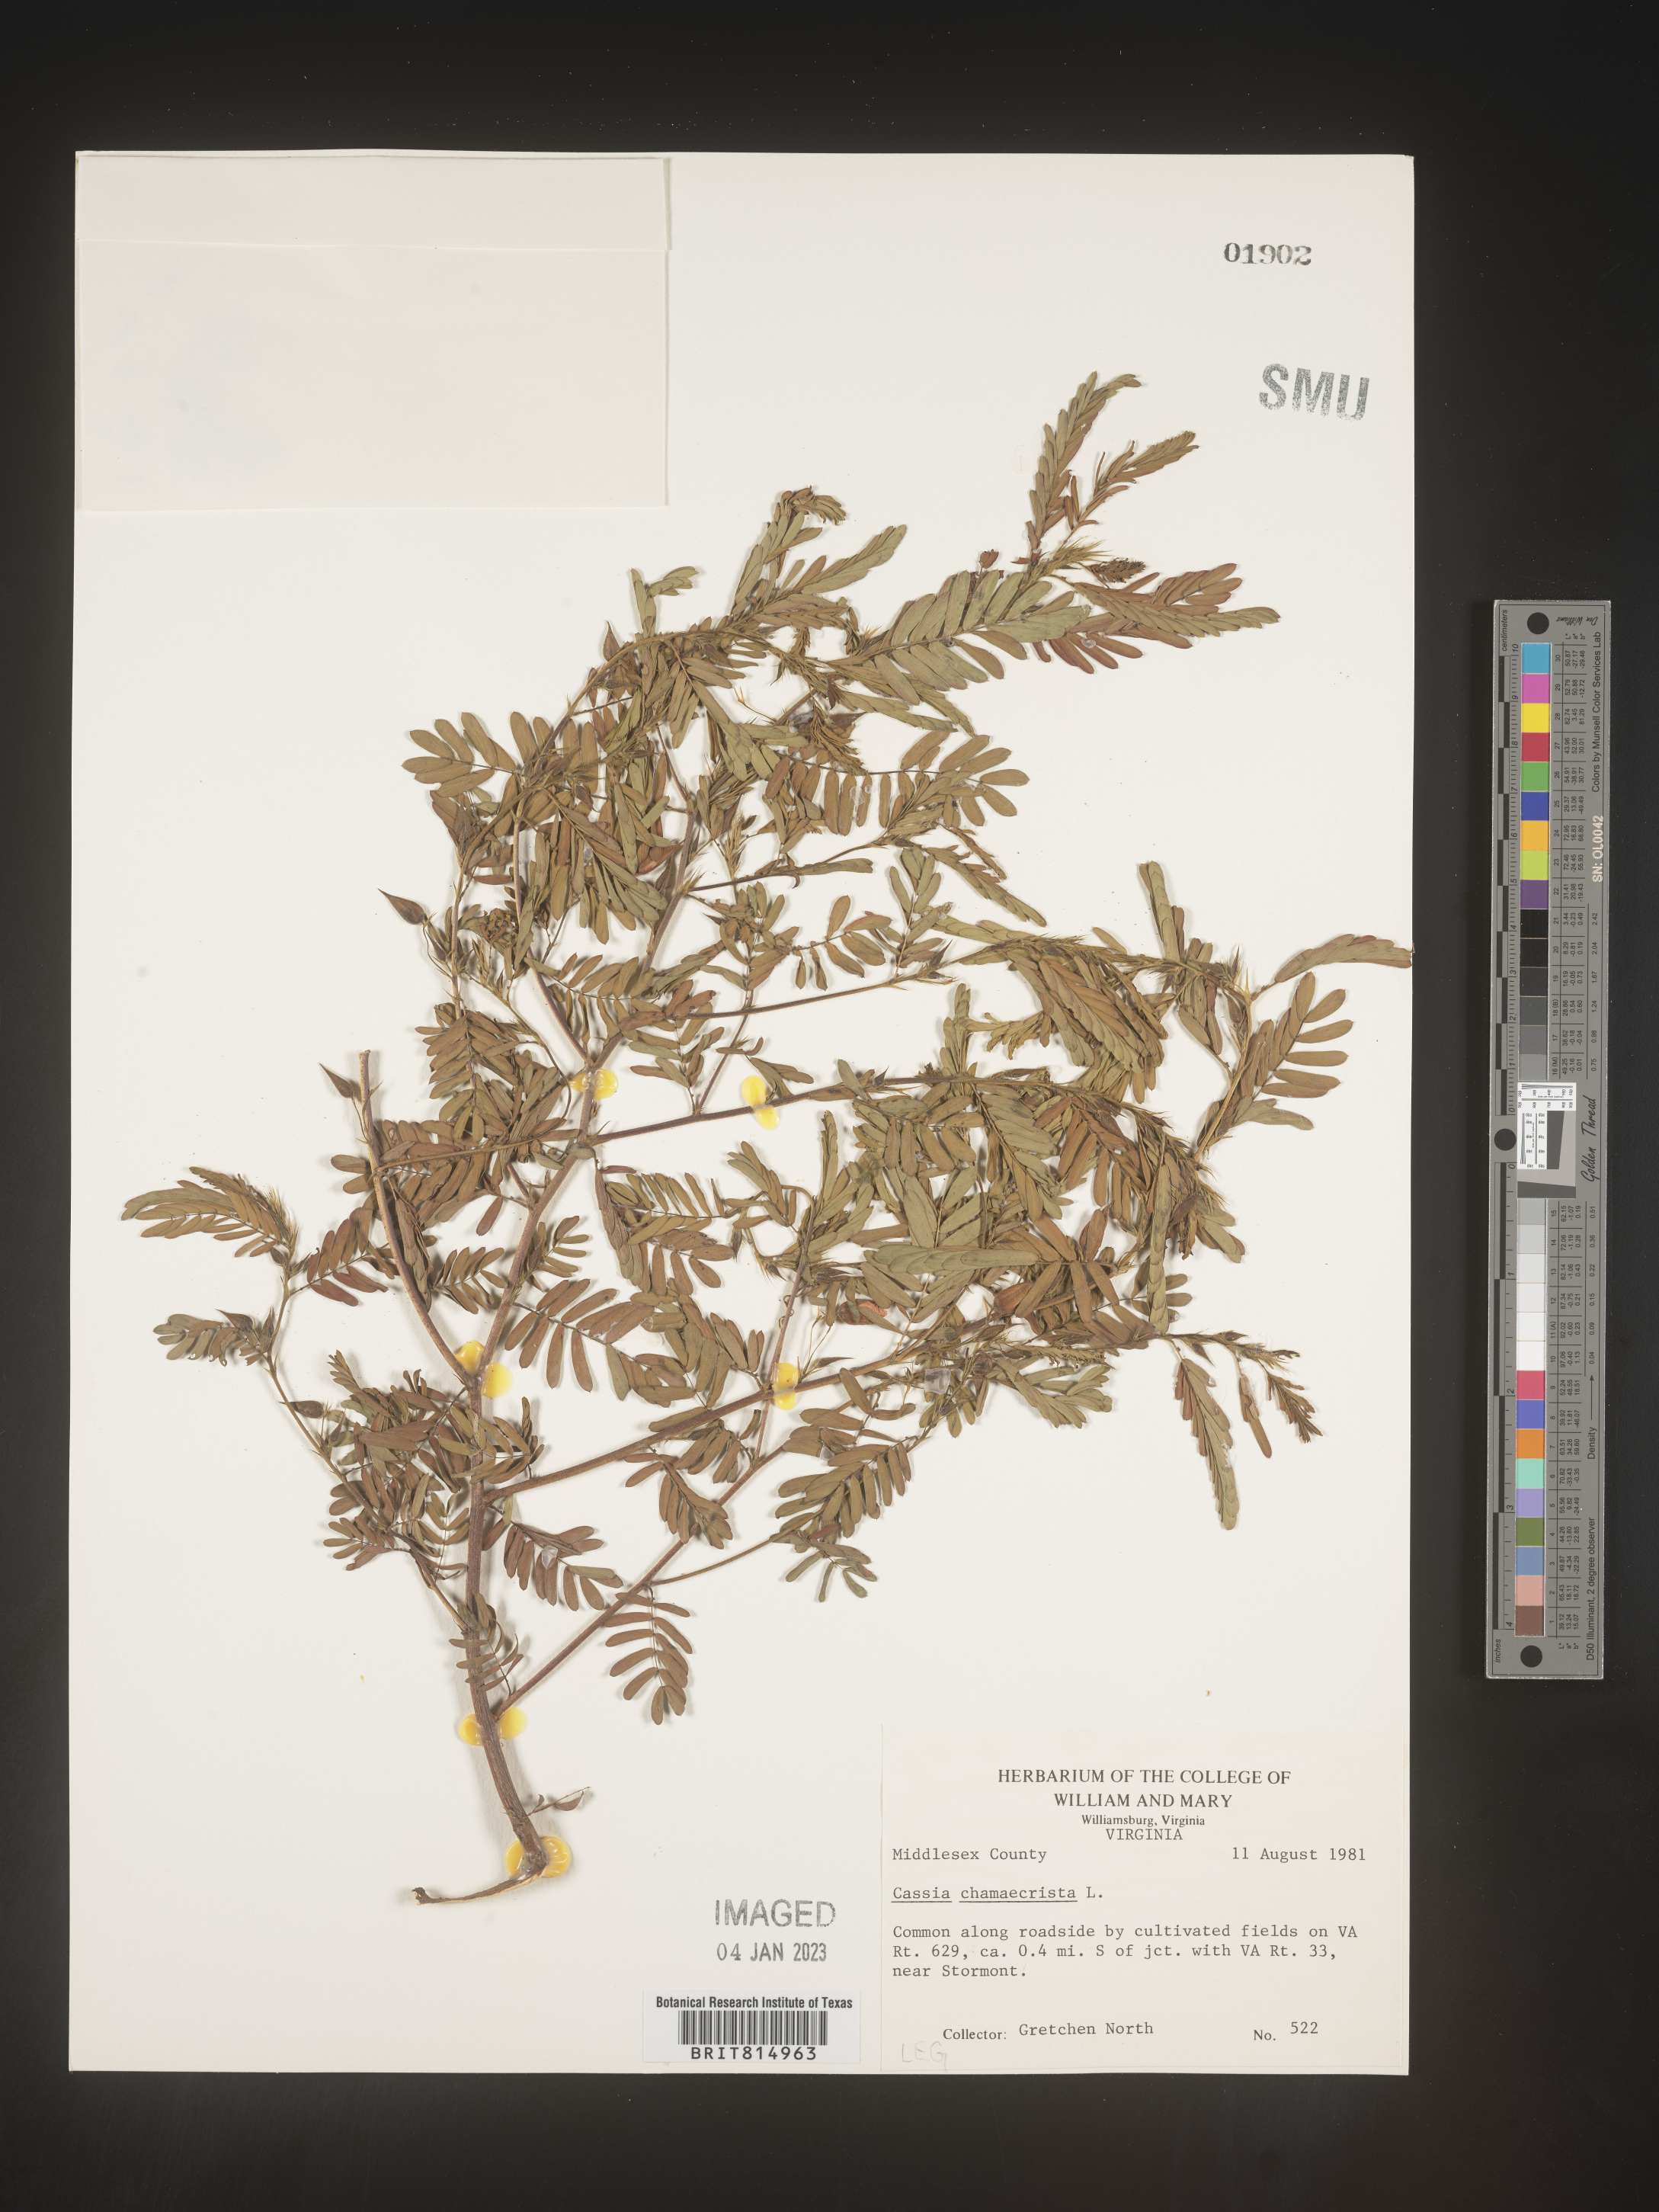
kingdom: Plantae
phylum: Tracheophyta
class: Magnoliopsida
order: Fabales
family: Fabaceae
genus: Cassia
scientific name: Cassia
